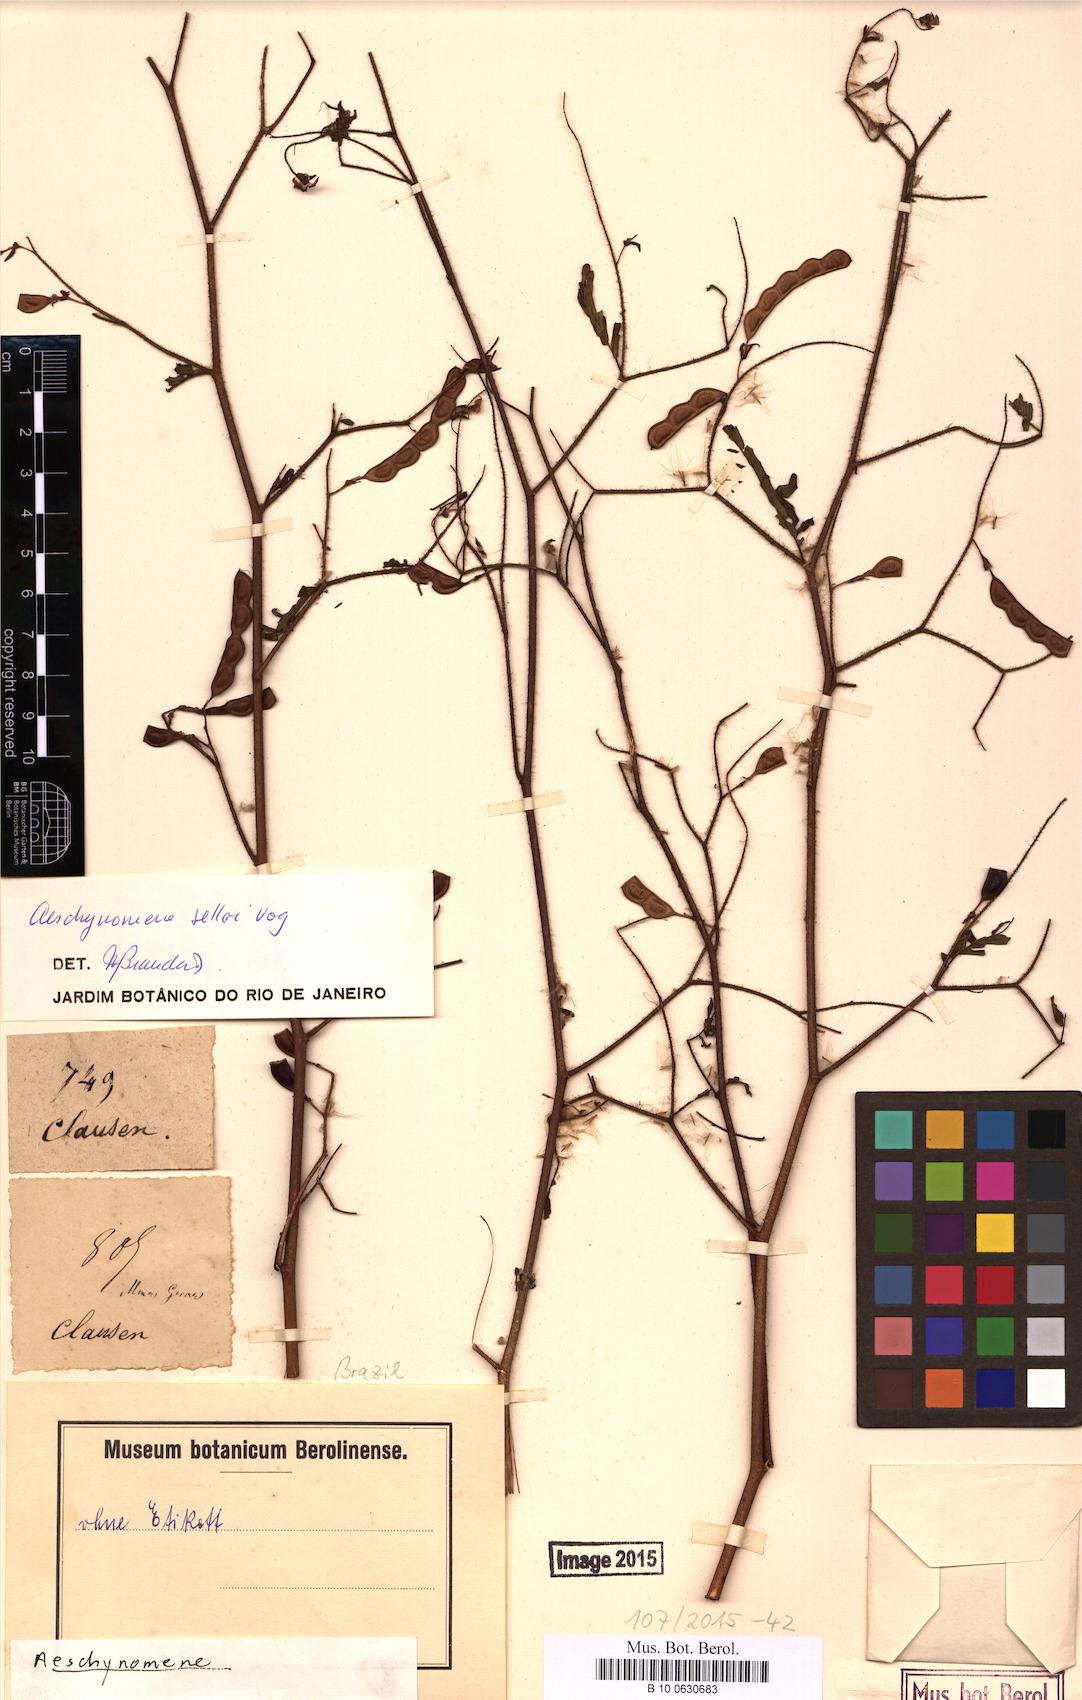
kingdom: Plantae
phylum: Tracheophyta
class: Magnoliopsida
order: Fabales
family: Fabaceae
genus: Aeschynomene
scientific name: Aeschynomene selloi
